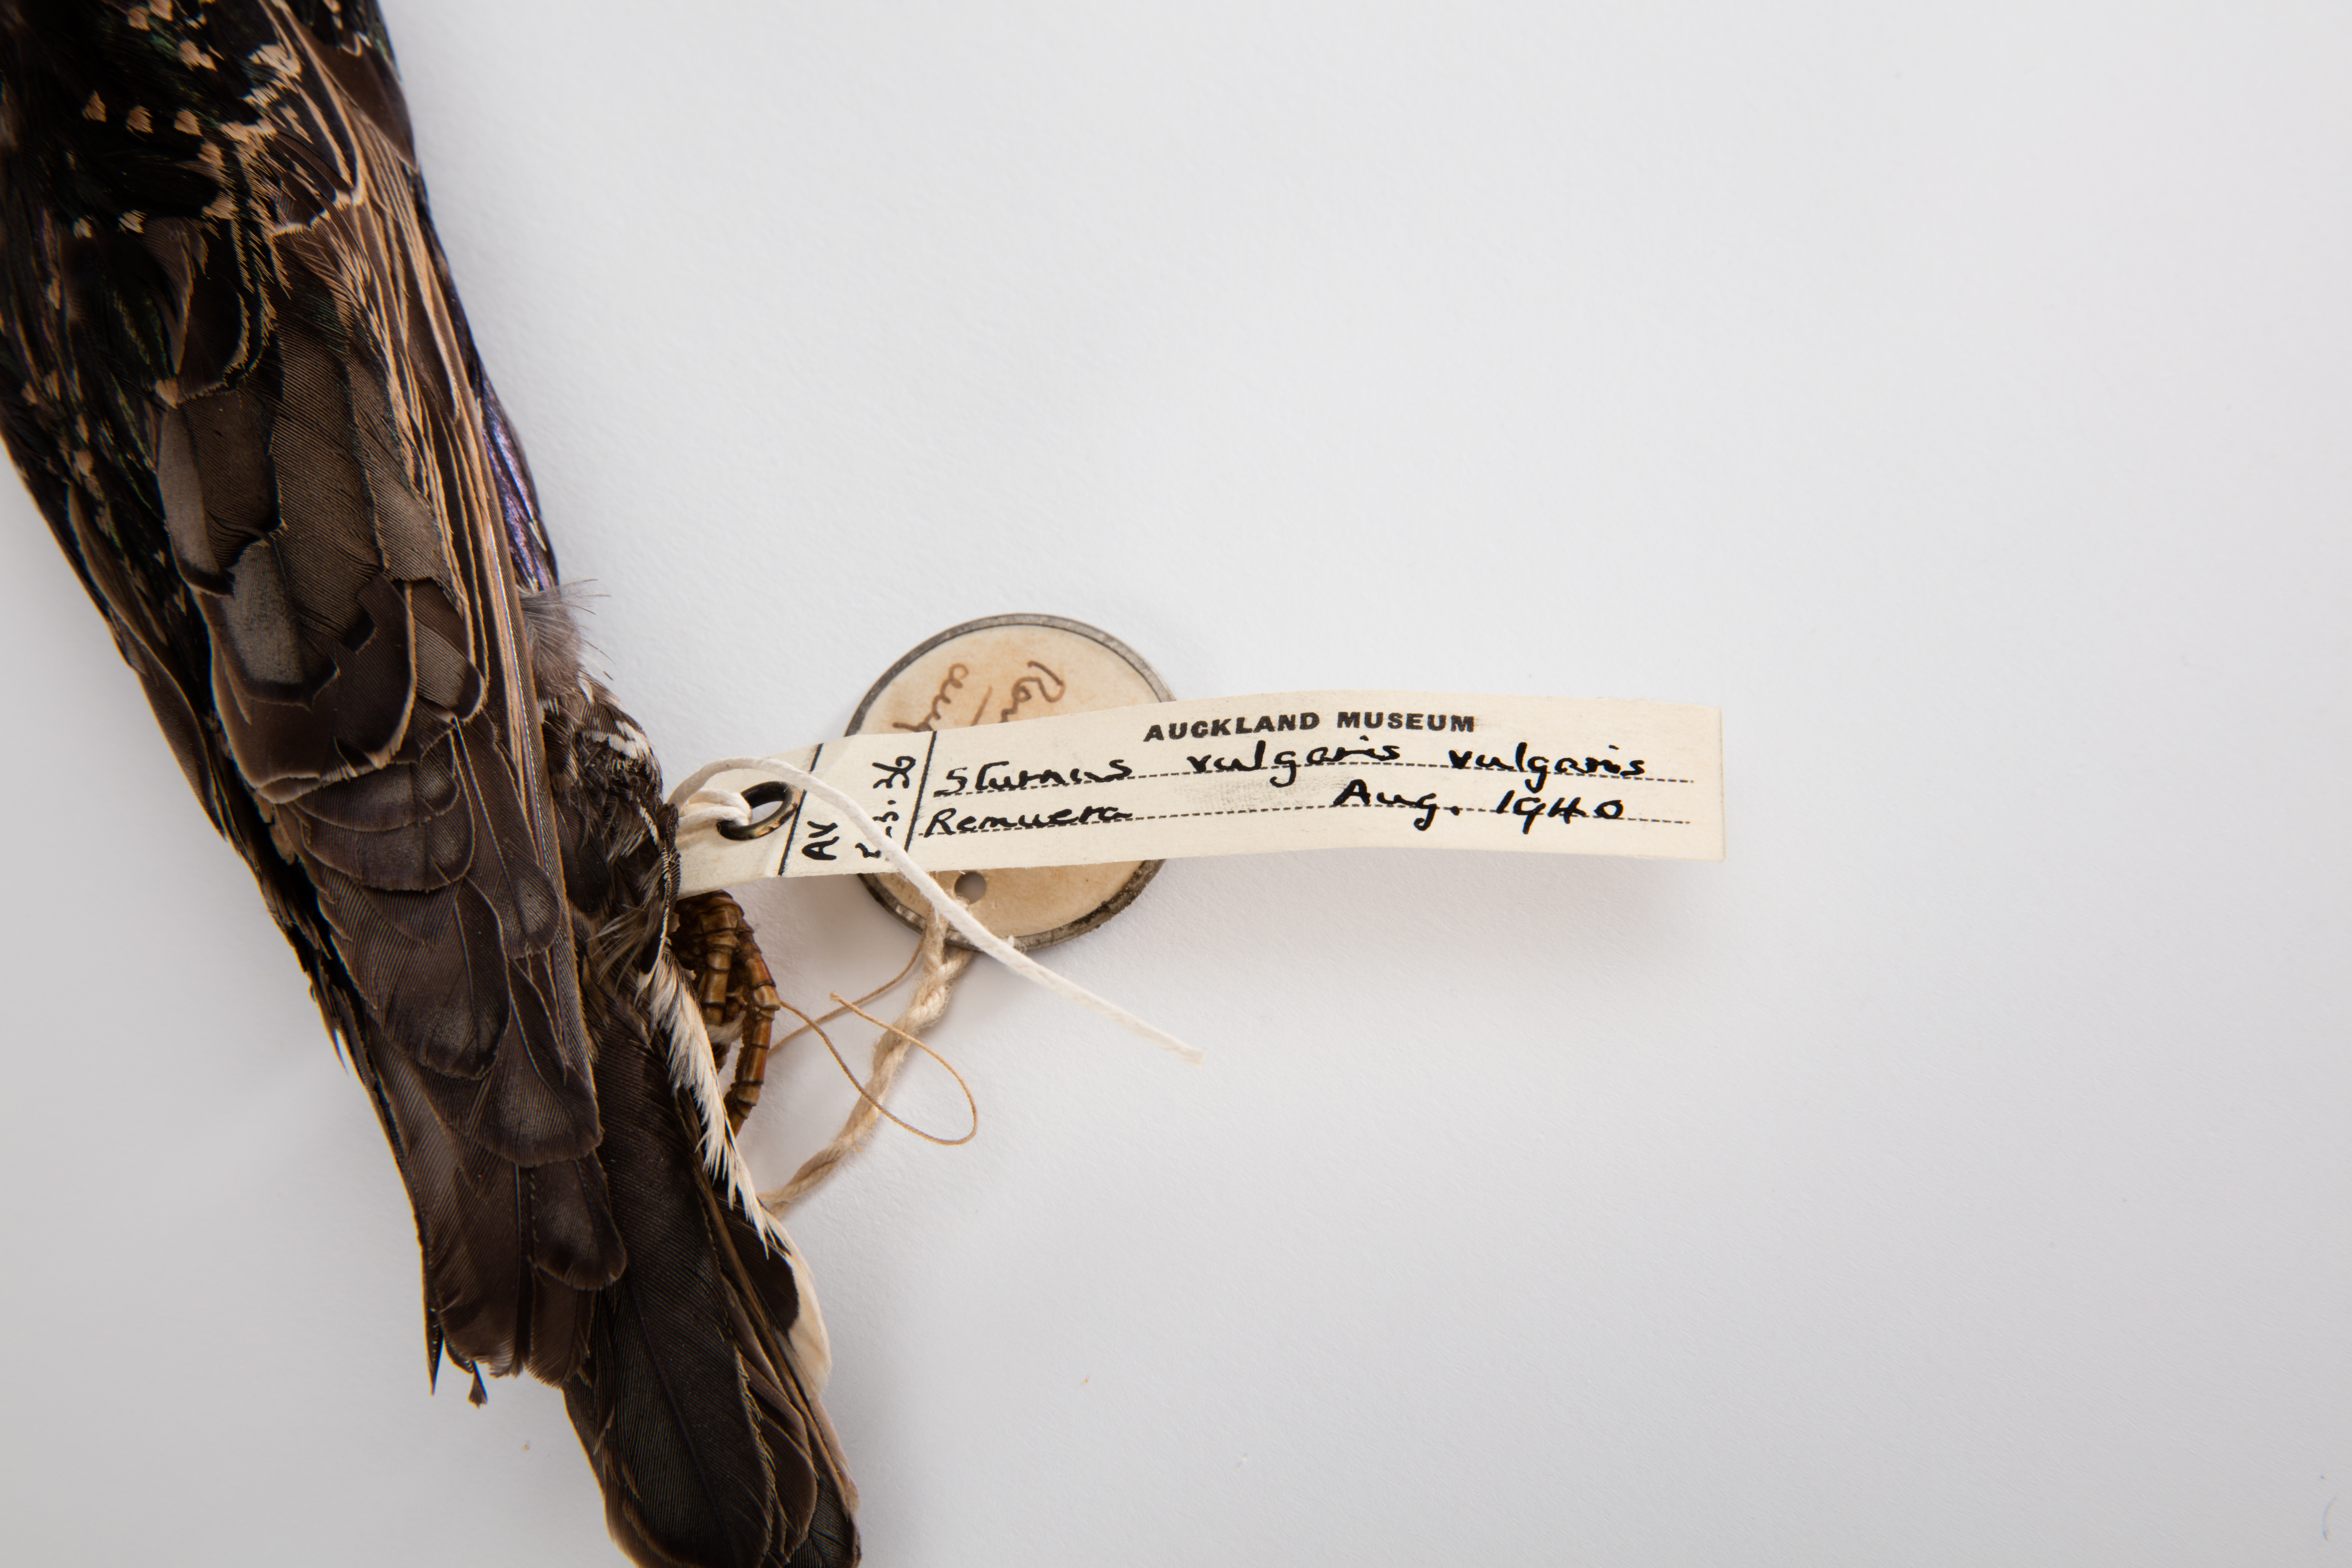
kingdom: Animalia
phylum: Chordata
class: Aves
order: Passeriformes
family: Sturnidae
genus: Sturnus
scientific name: Sturnus vulgaris
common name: Common starling
